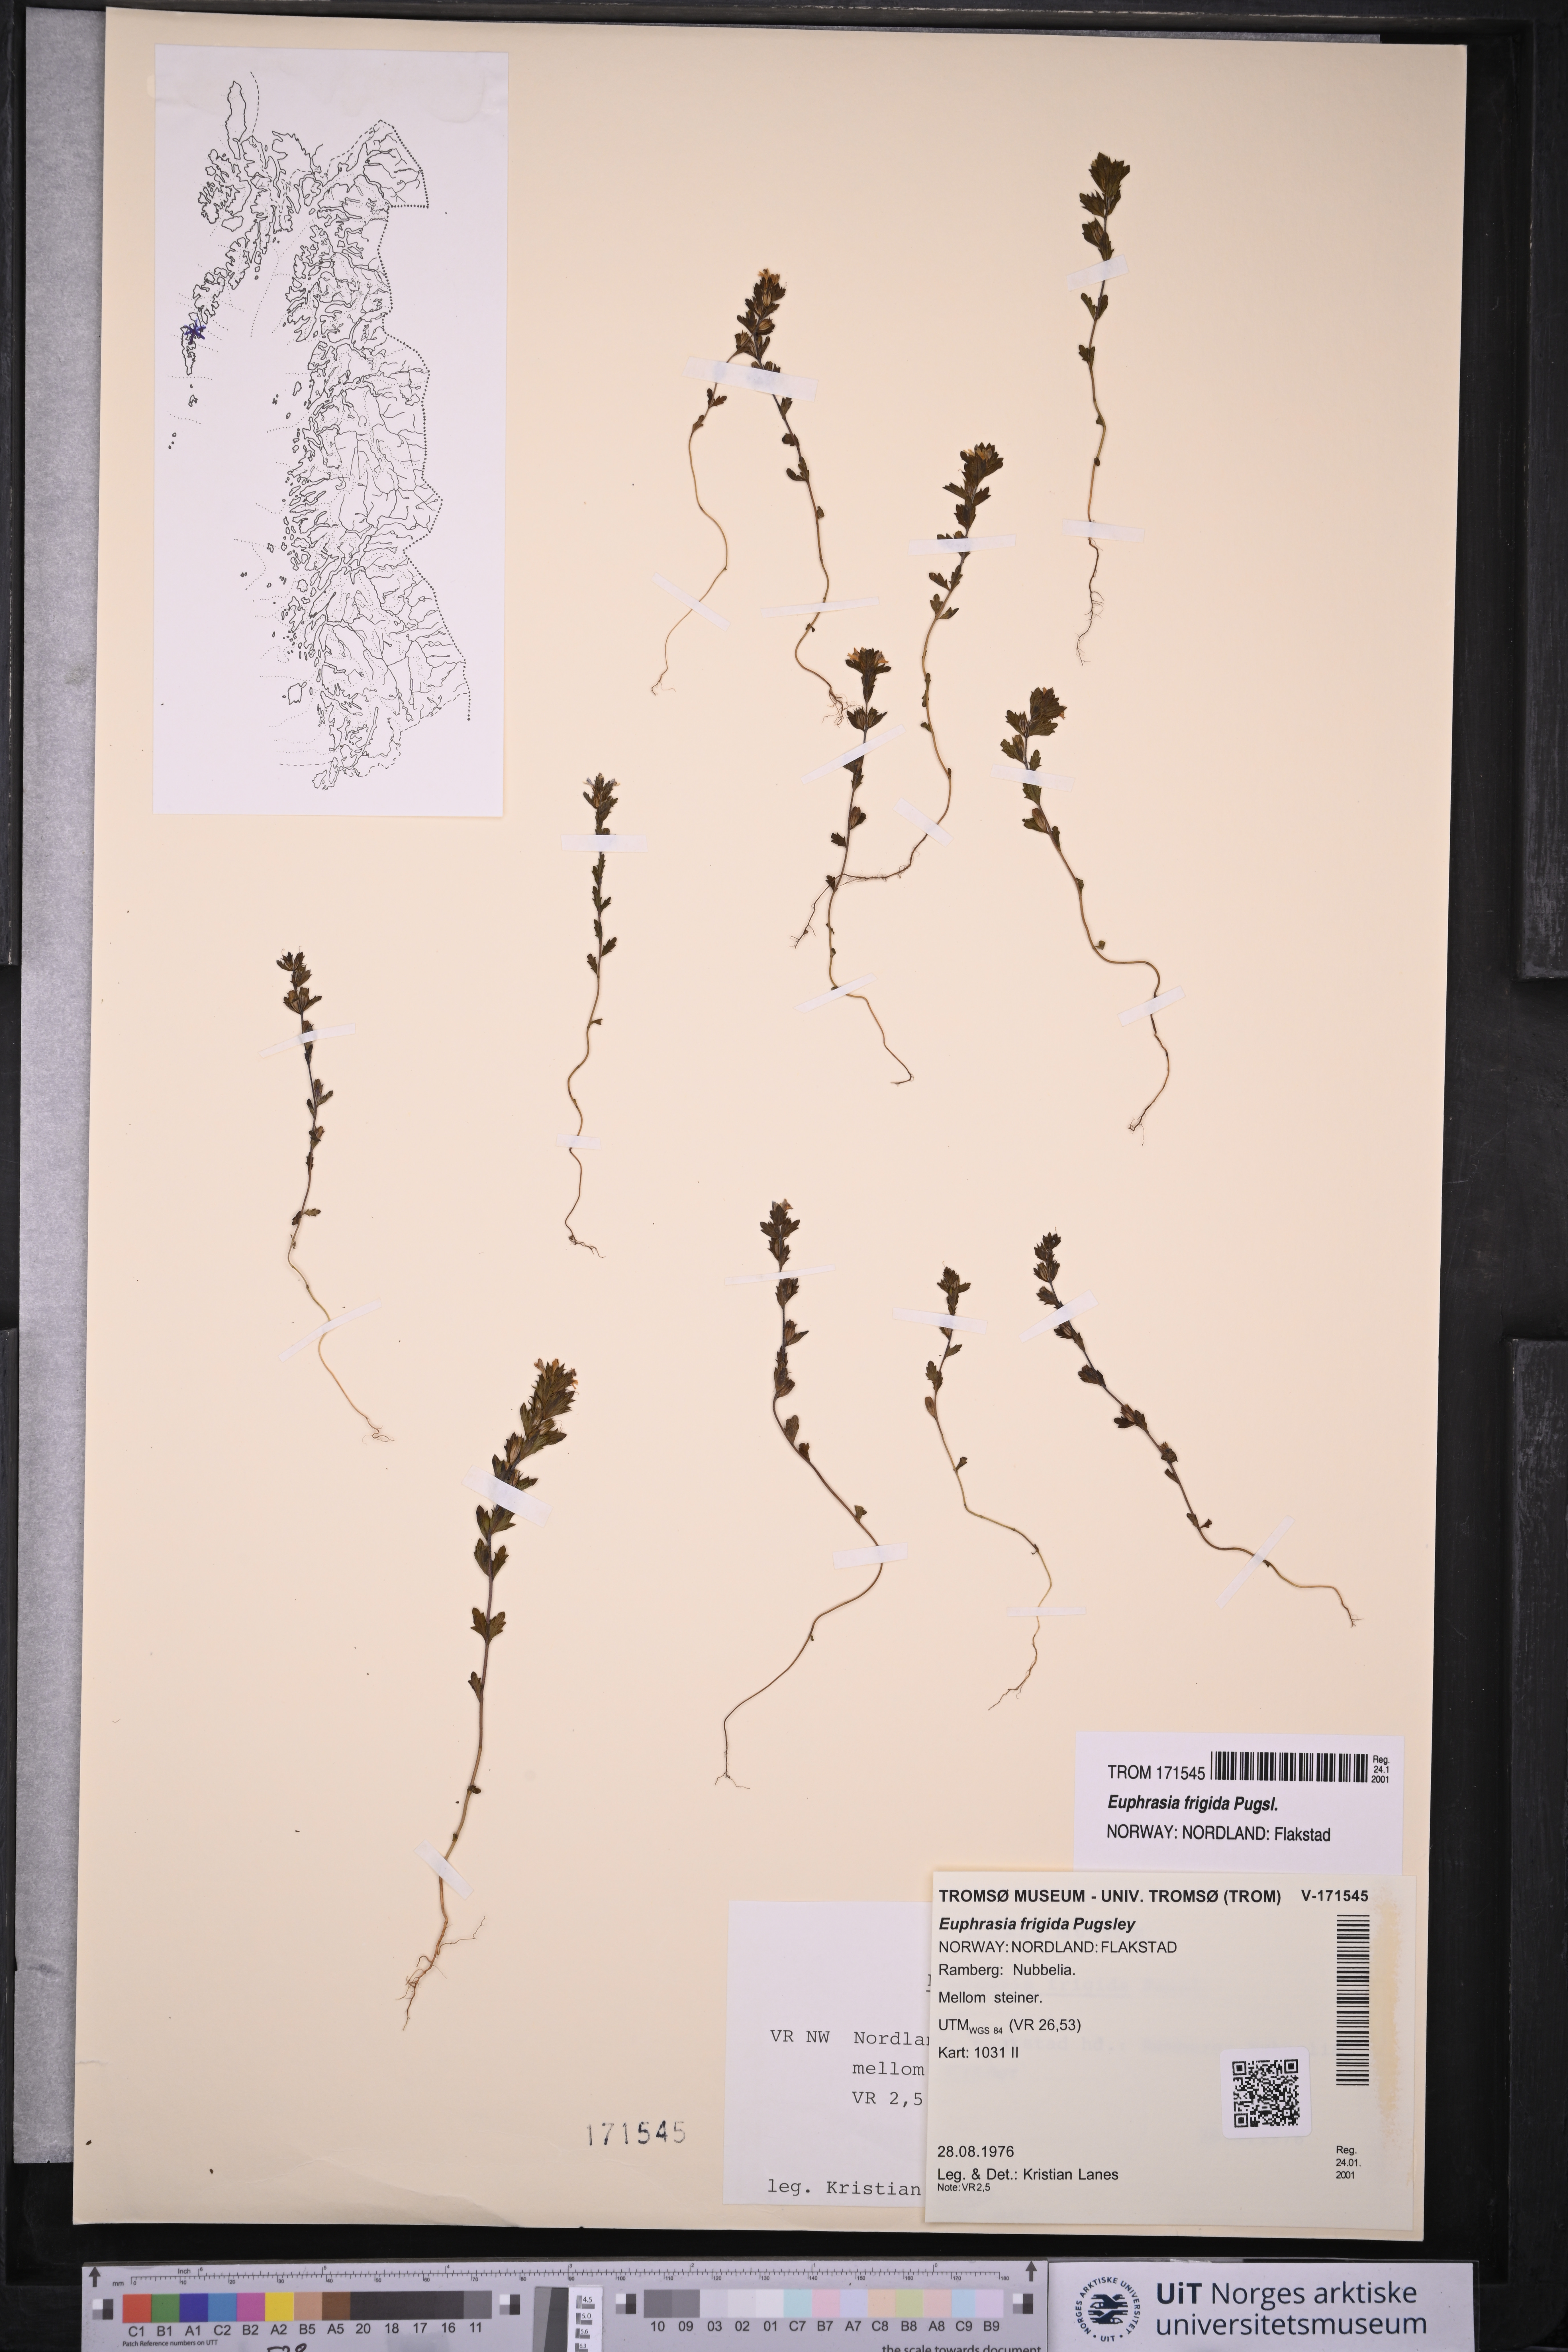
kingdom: Plantae
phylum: Tracheophyta
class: Magnoliopsida
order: Lamiales
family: Orobanchaceae
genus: Euphrasia
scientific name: Euphrasia frigida
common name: An eyebright
